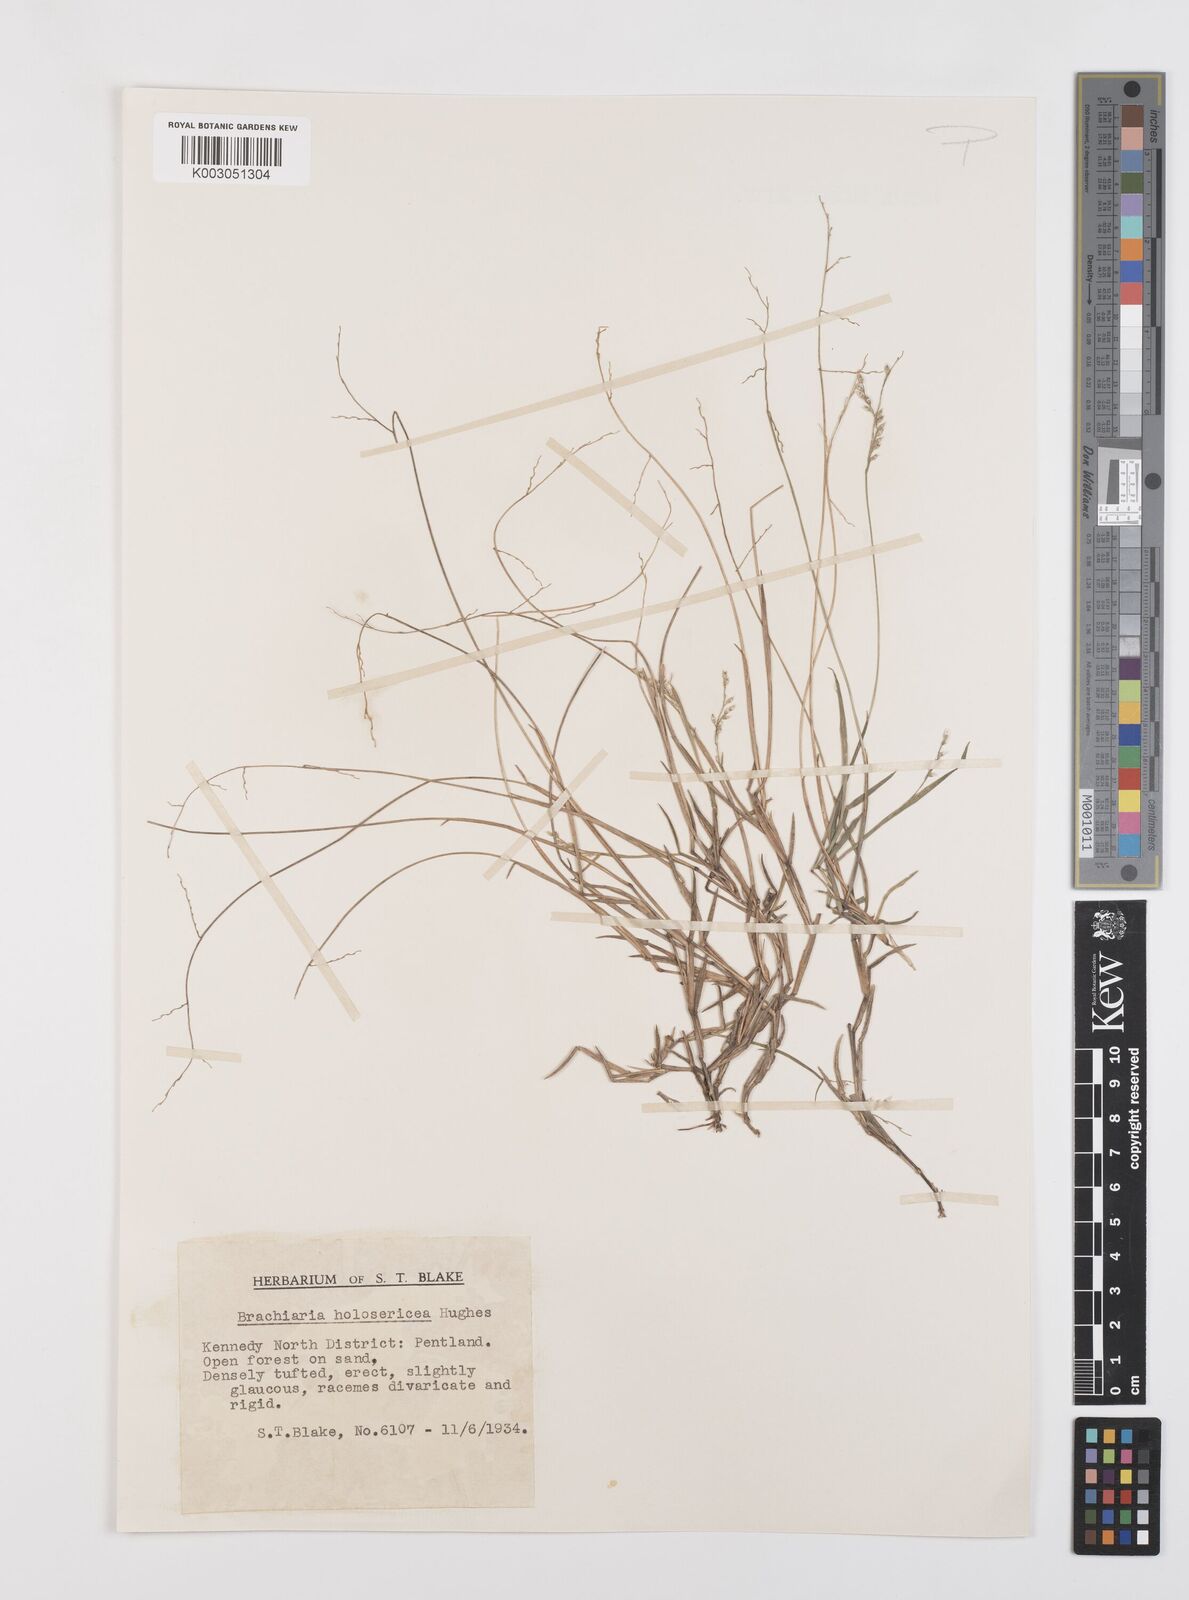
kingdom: Plantae
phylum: Tracheophyta
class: Liliopsida
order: Poales
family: Poaceae
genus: Urochloa
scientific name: Urochloa holosericea
